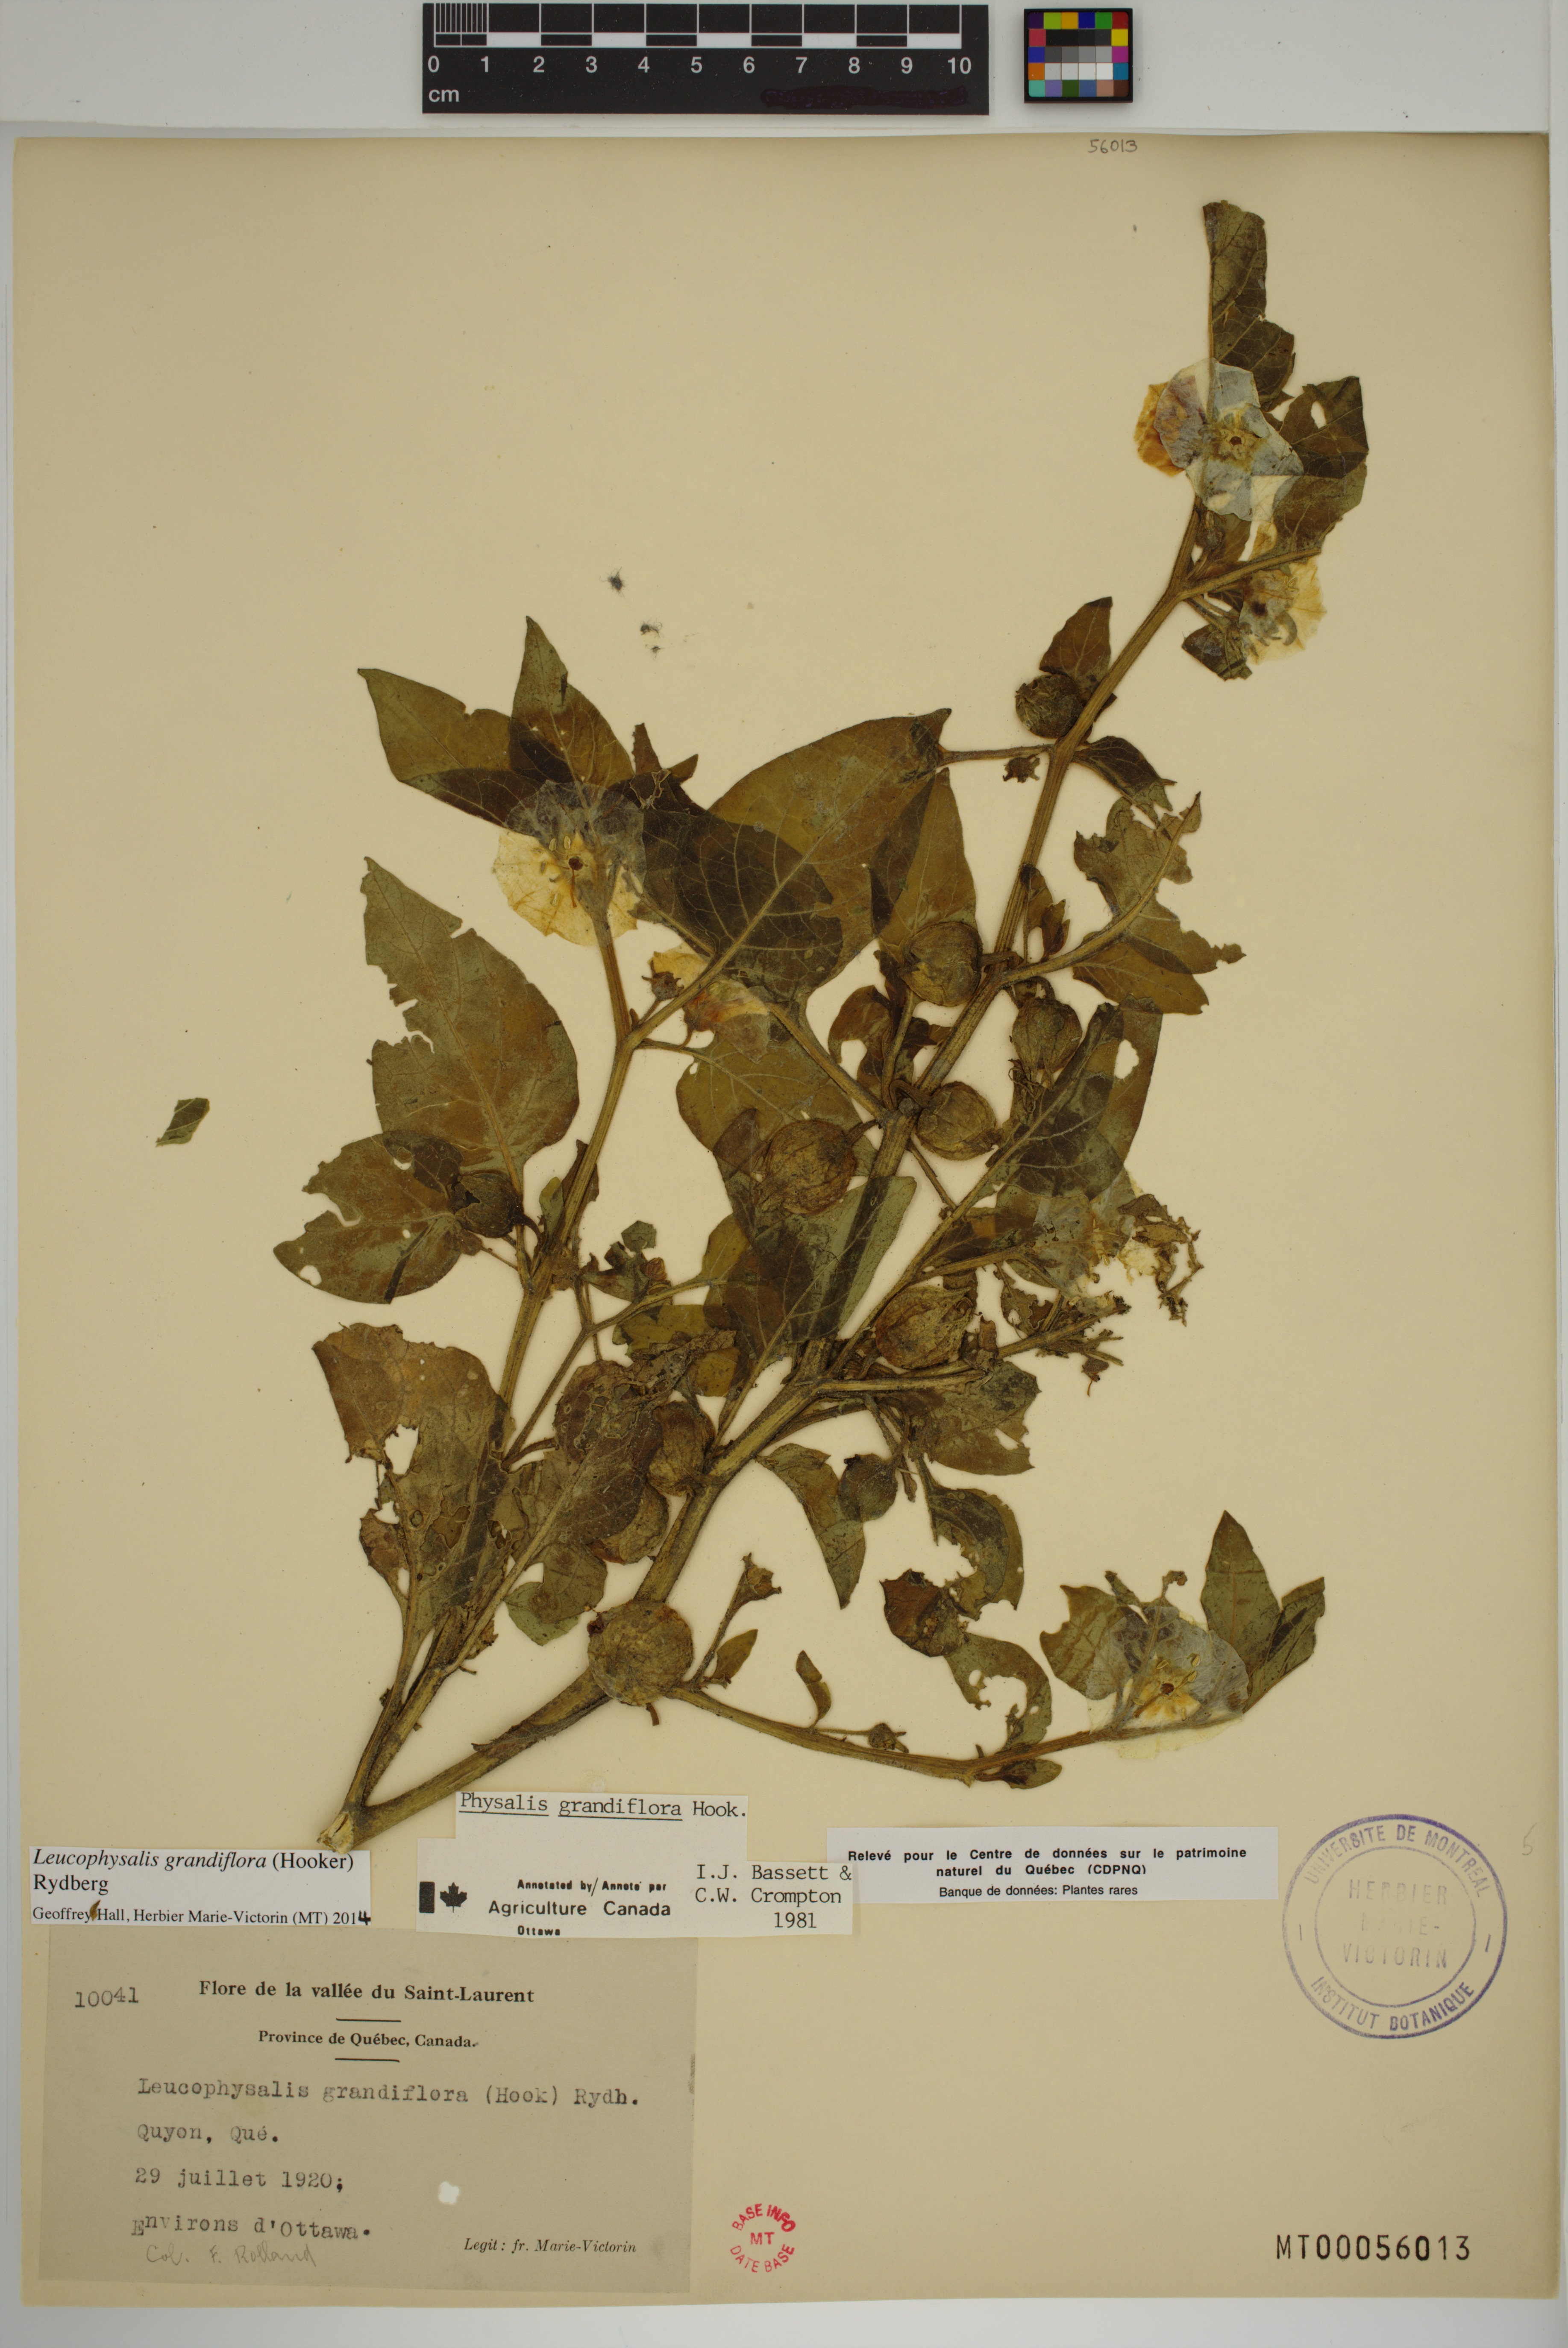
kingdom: Plantae
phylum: Tracheophyta
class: Magnoliopsida
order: Solanales
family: Solanaceae
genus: Leucophysalis
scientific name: Leucophysalis grandiflora
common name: Large false ground-cherry
